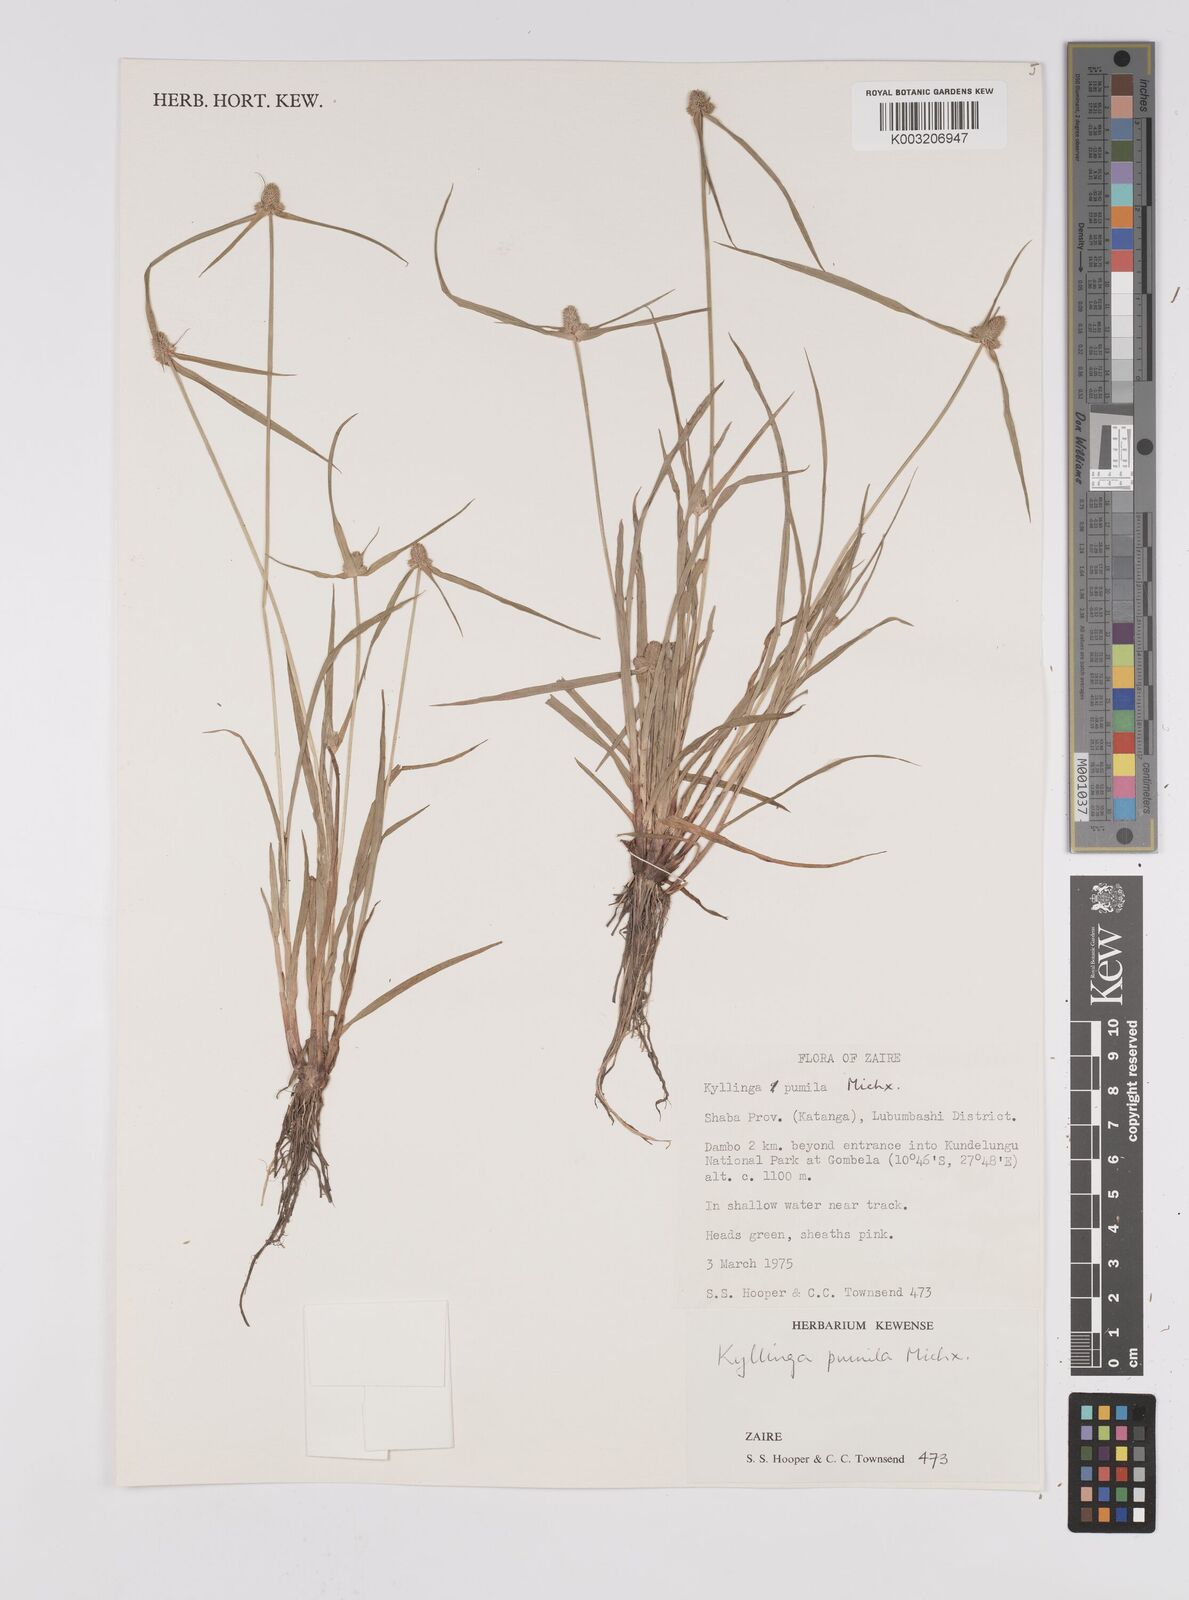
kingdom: Plantae
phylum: Tracheophyta
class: Liliopsida
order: Poales
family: Cyperaceae
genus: Cyperus
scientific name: Cyperus hortensis
